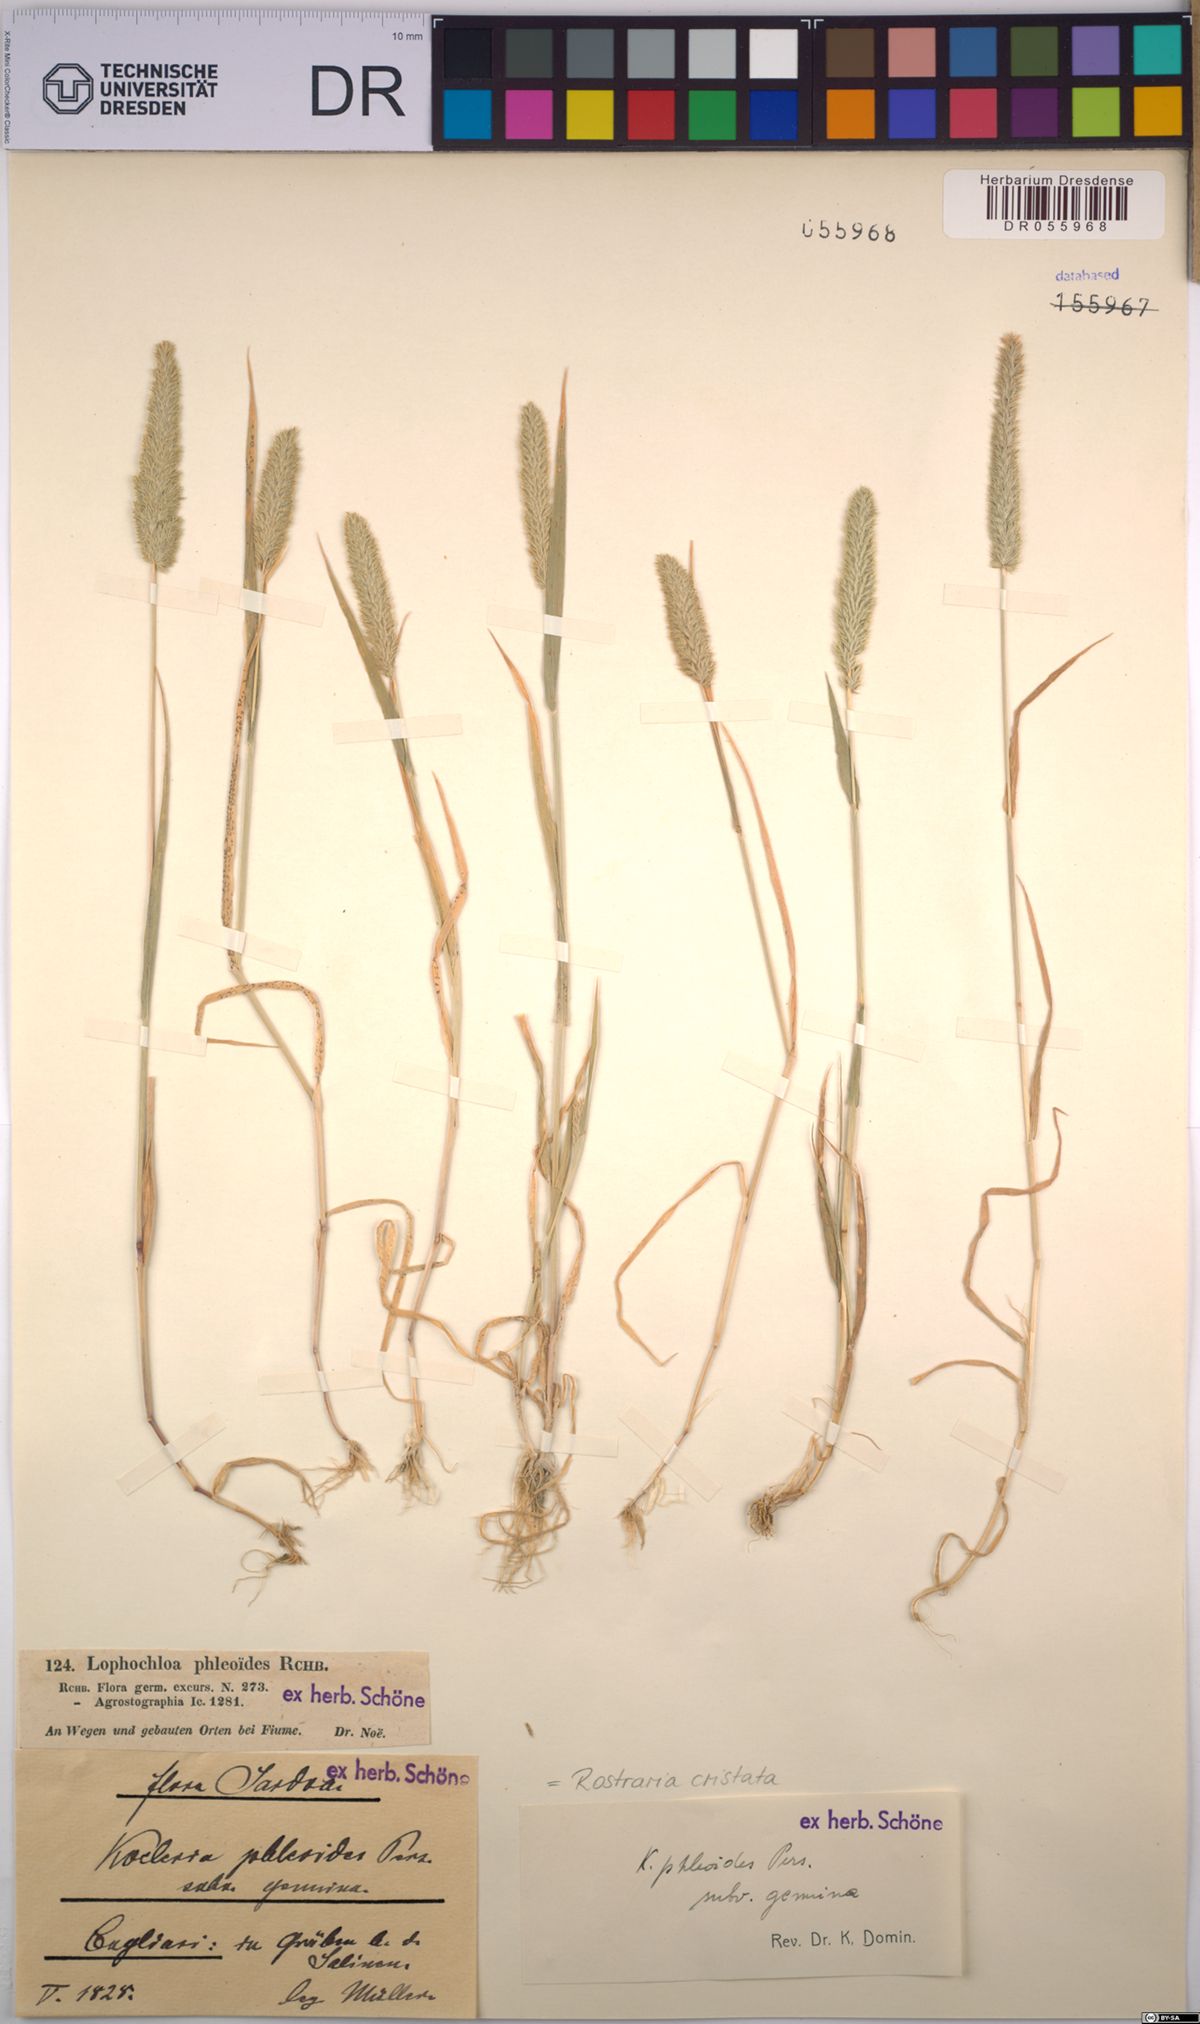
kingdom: Plantae
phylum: Tracheophyta
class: Liliopsida
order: Poales
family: Poaceae
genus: Rostraria
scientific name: Rostraria cristata
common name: Mediterranean hair-grass
